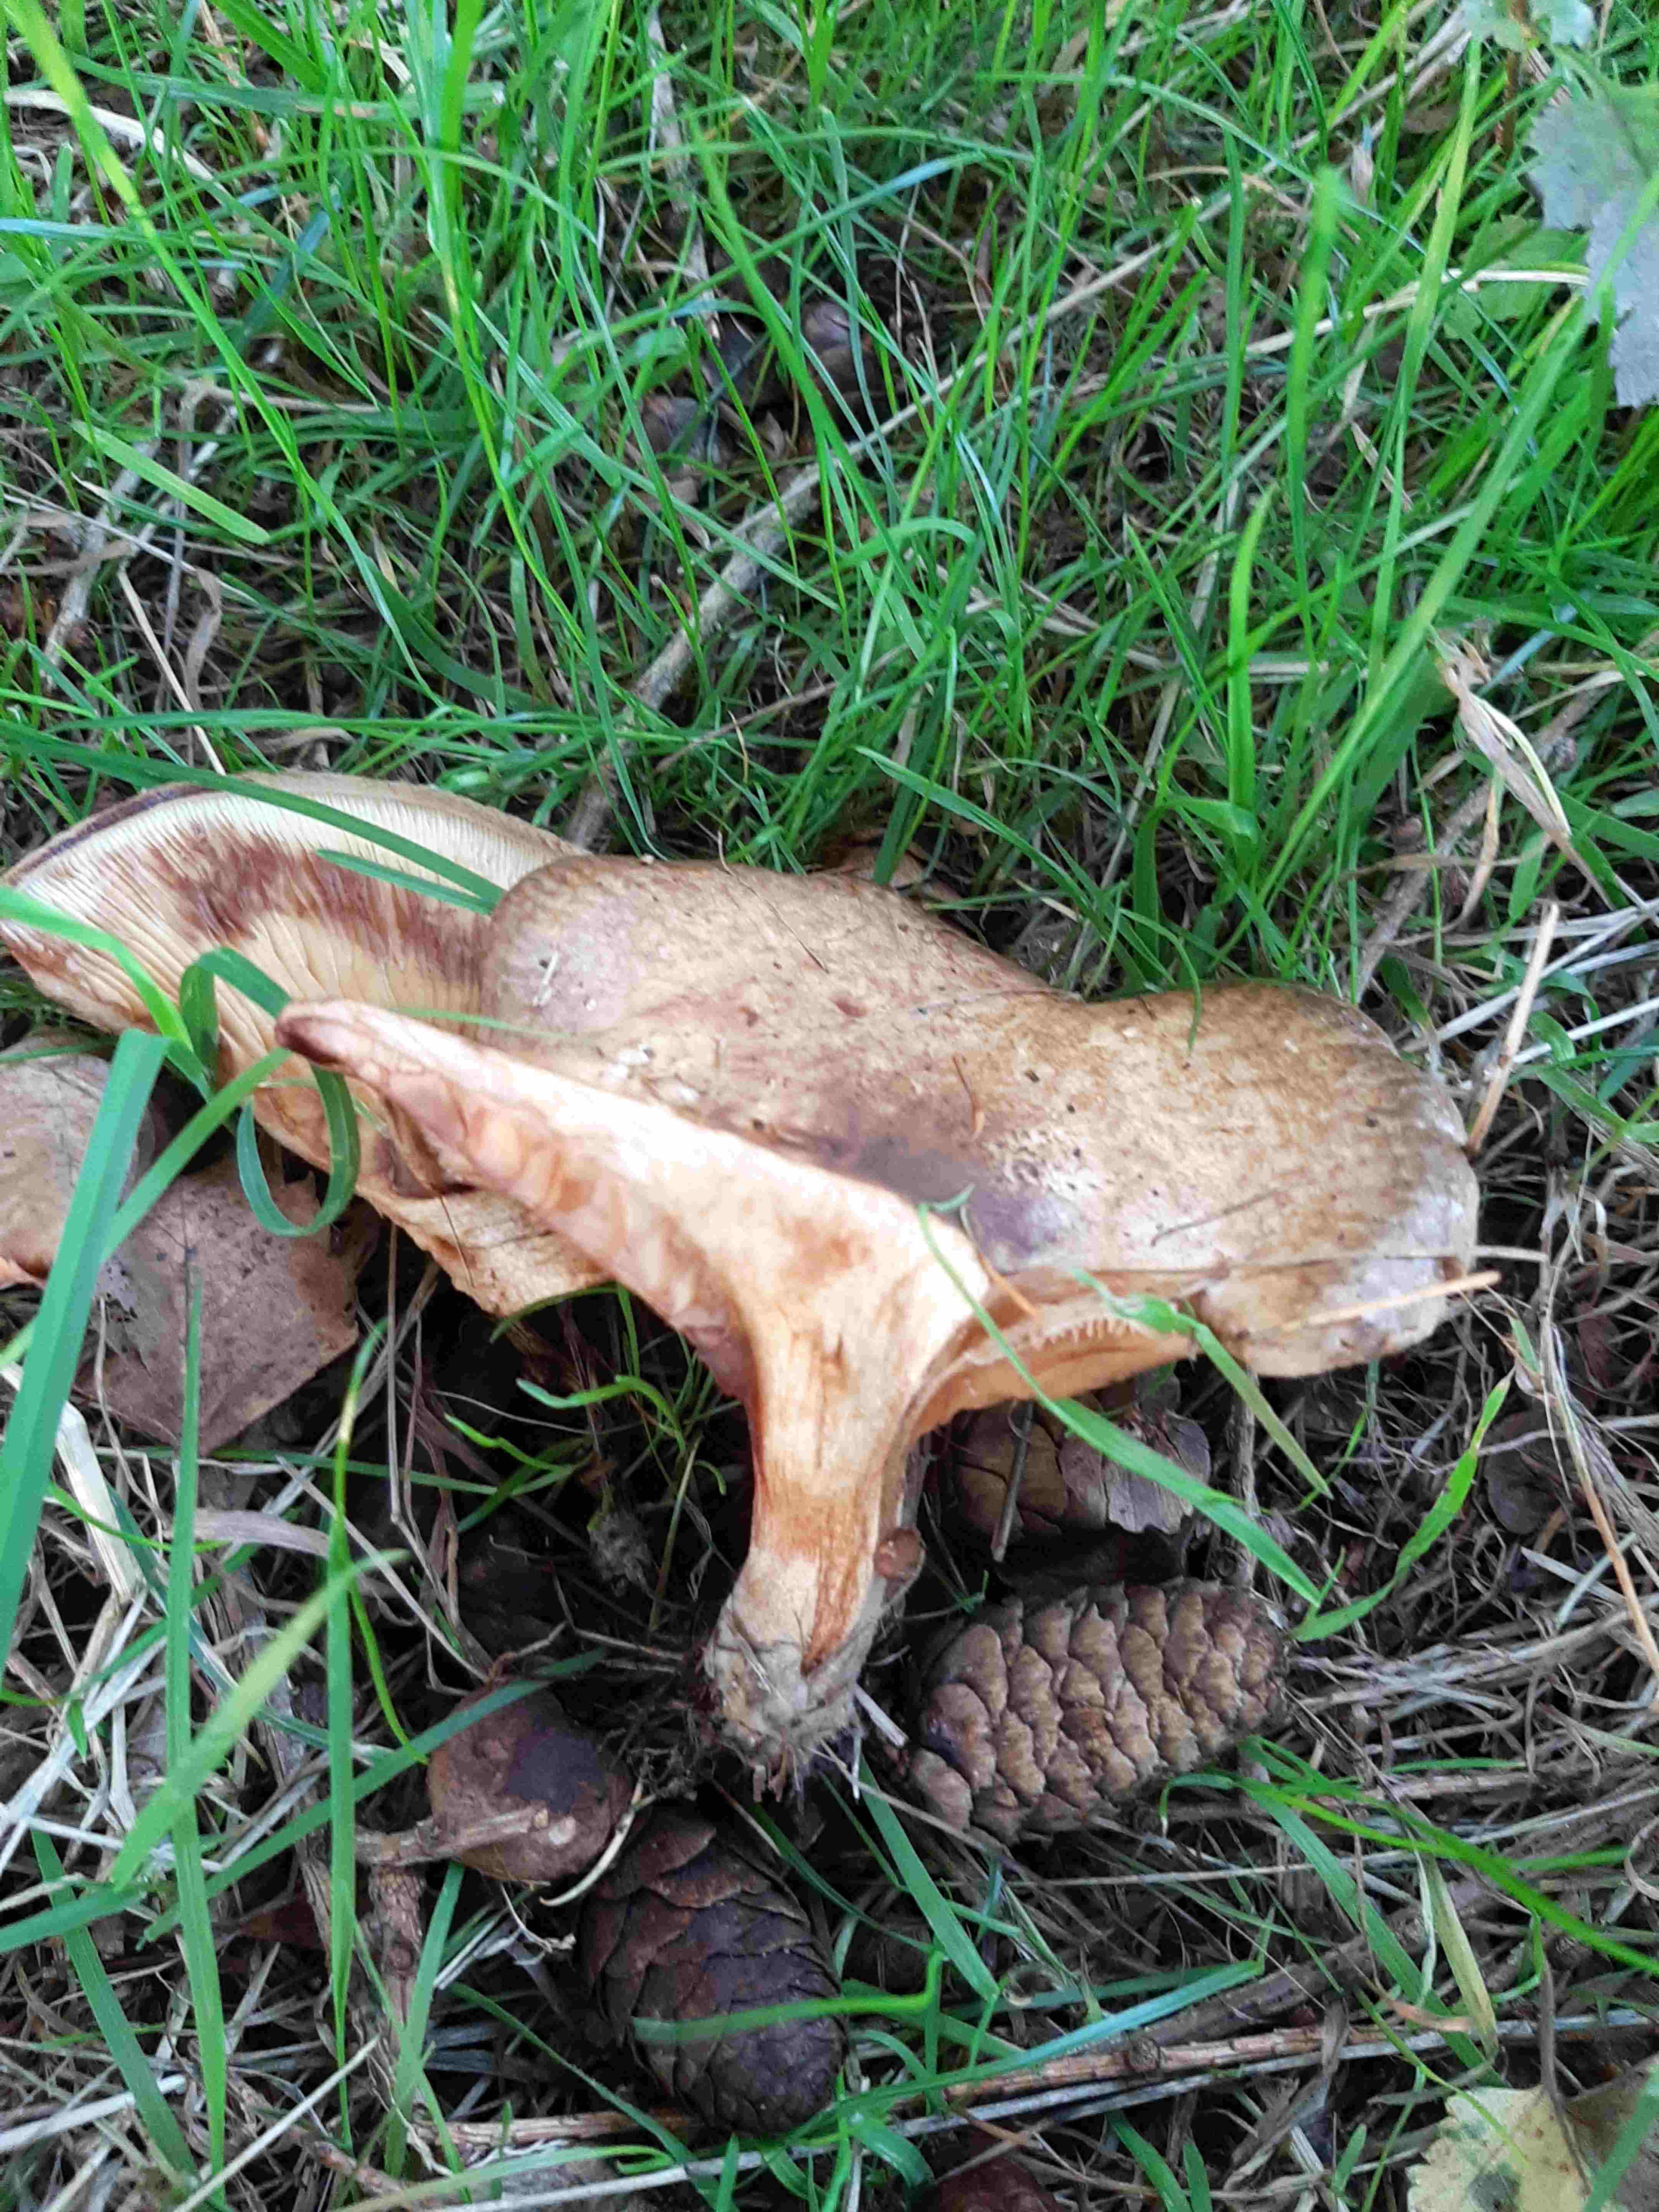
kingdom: Fungi
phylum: Basidiomycota
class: Agaricomycetes
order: Boletales
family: Paxillaceae
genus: Paxillus
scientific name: Paxillus involutus
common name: almindelig netbladhat
